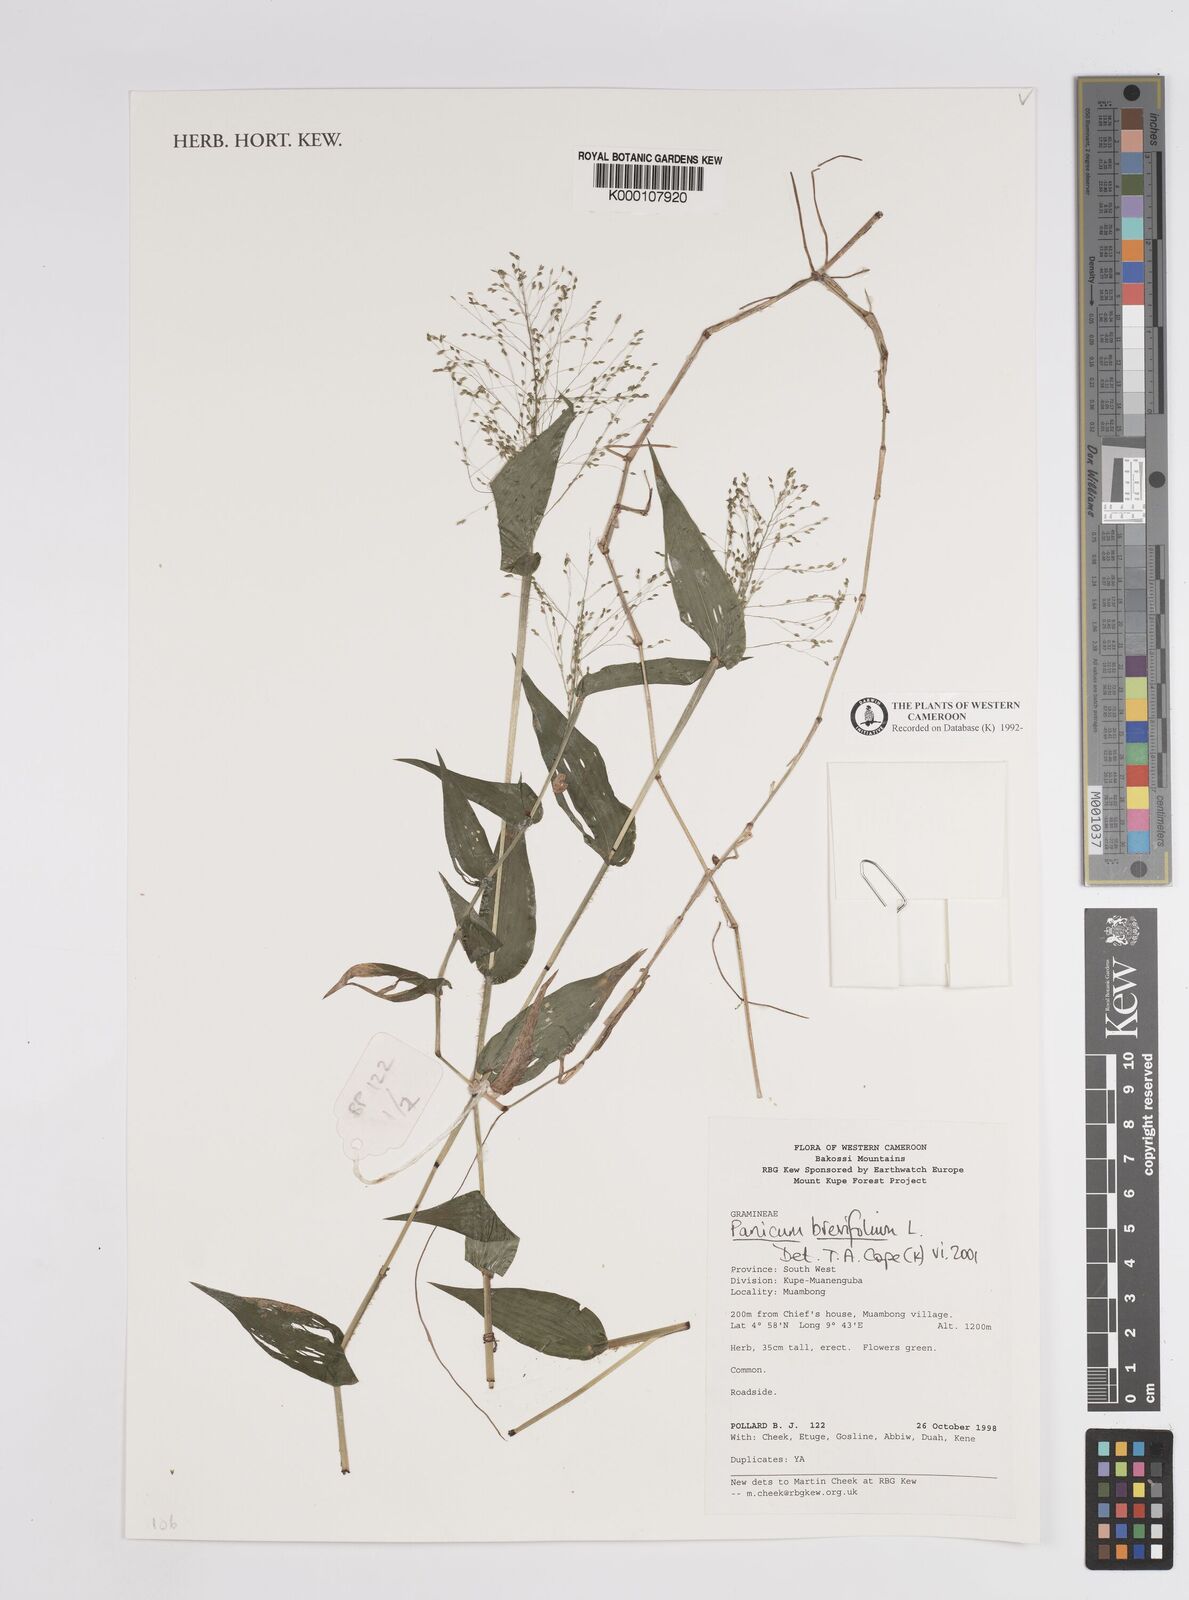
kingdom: Plantae
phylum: Tracheophyta
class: Liliopsida
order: Poales
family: Poaceae
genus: Panicum
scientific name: Panicum brevifolium
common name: Shortleaf panic grass
